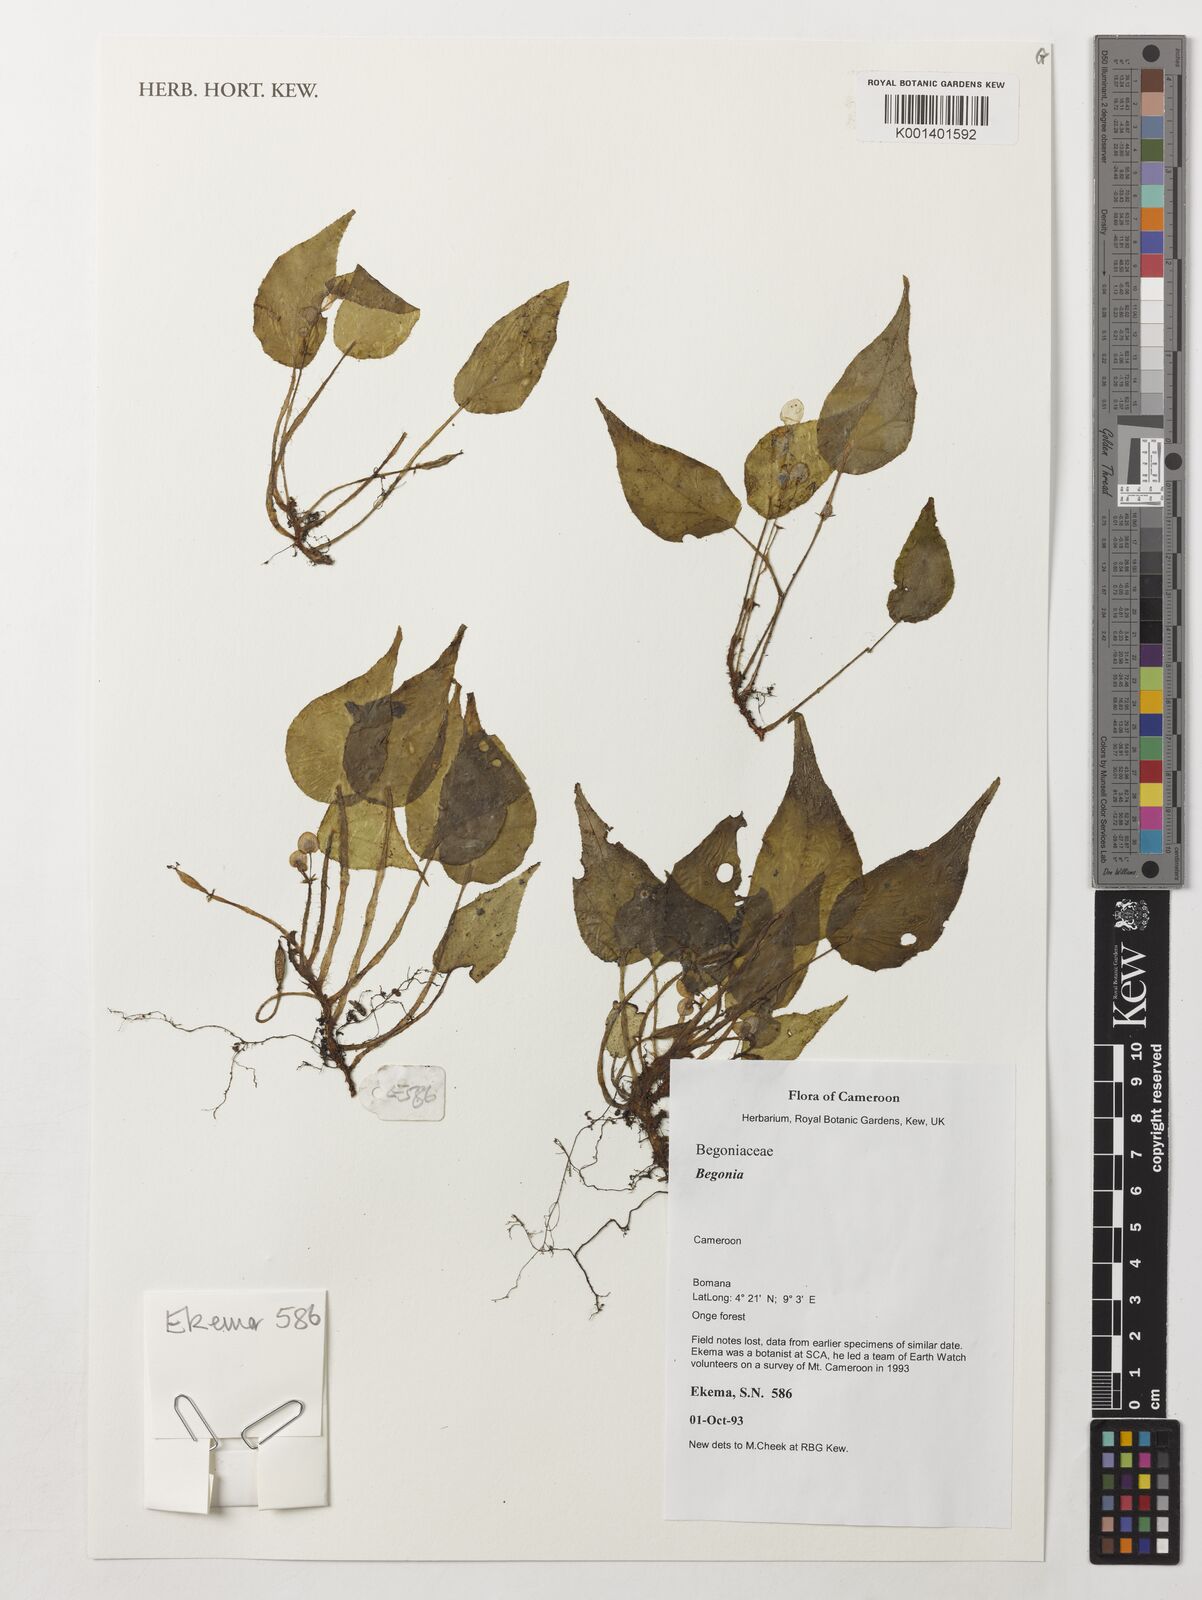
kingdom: Plantae
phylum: Tracheophyta
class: Magnoliopsida
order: Cucurbitales
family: Begoniaceae
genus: Begonia
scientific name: Begonia
